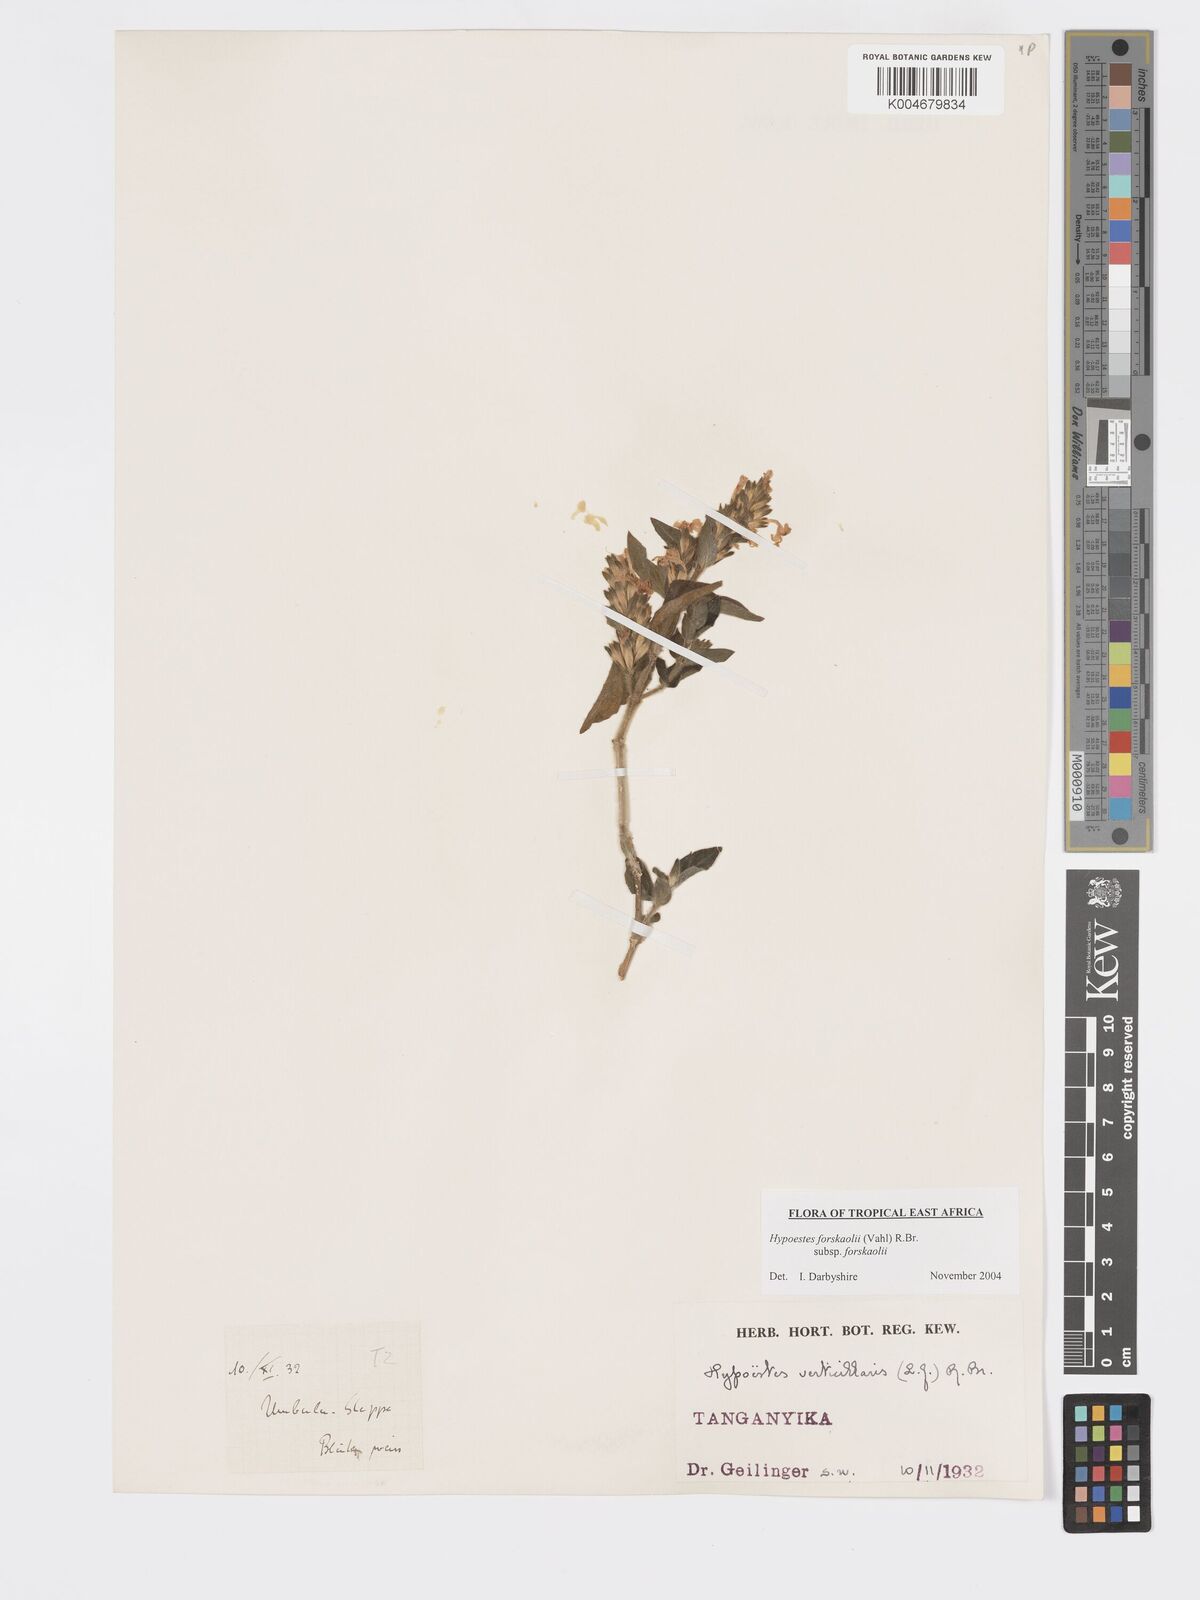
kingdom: Plantae
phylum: Tracheophyta
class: Magnoliopsida
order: Lamiales
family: Acanthaceae
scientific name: Acanthaceae
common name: Acanthaceae
